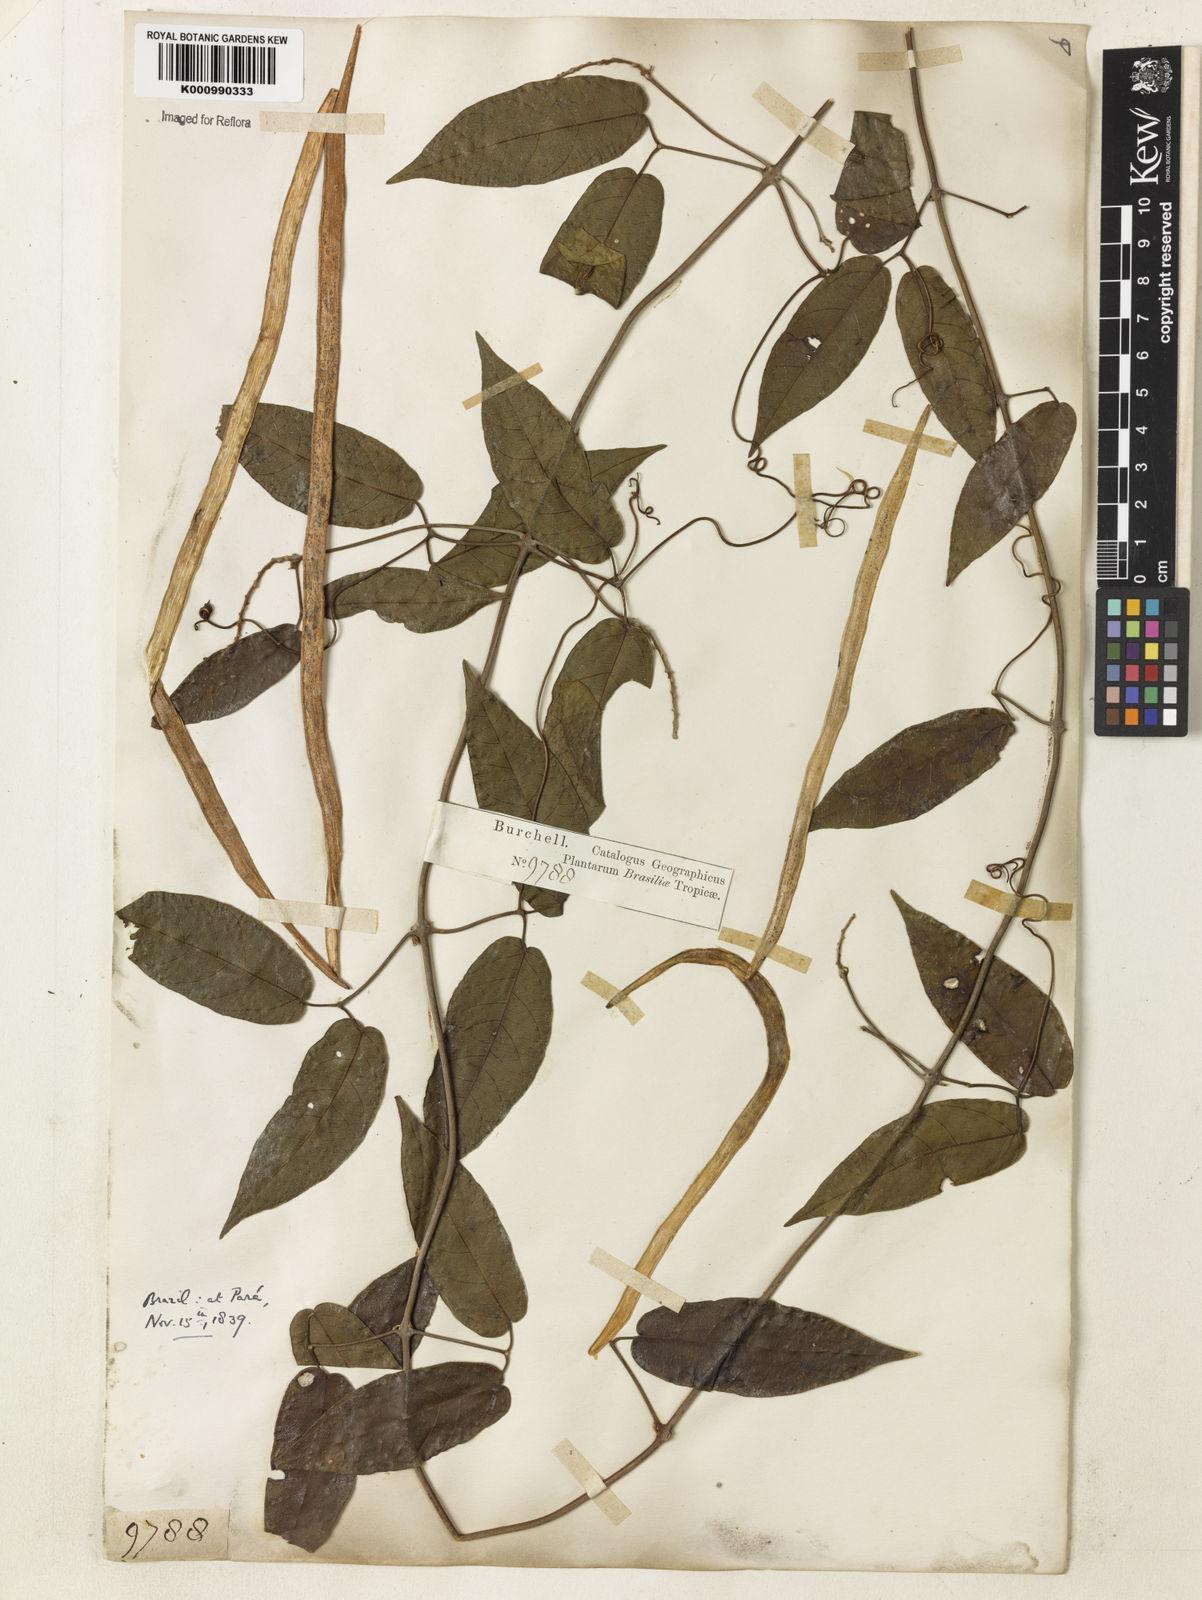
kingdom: Plantae
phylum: Tracheophyta
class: Magnoliopsida
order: Lamiales
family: Bignoniaceae
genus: Stizophyllum
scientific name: Stizophyllum
